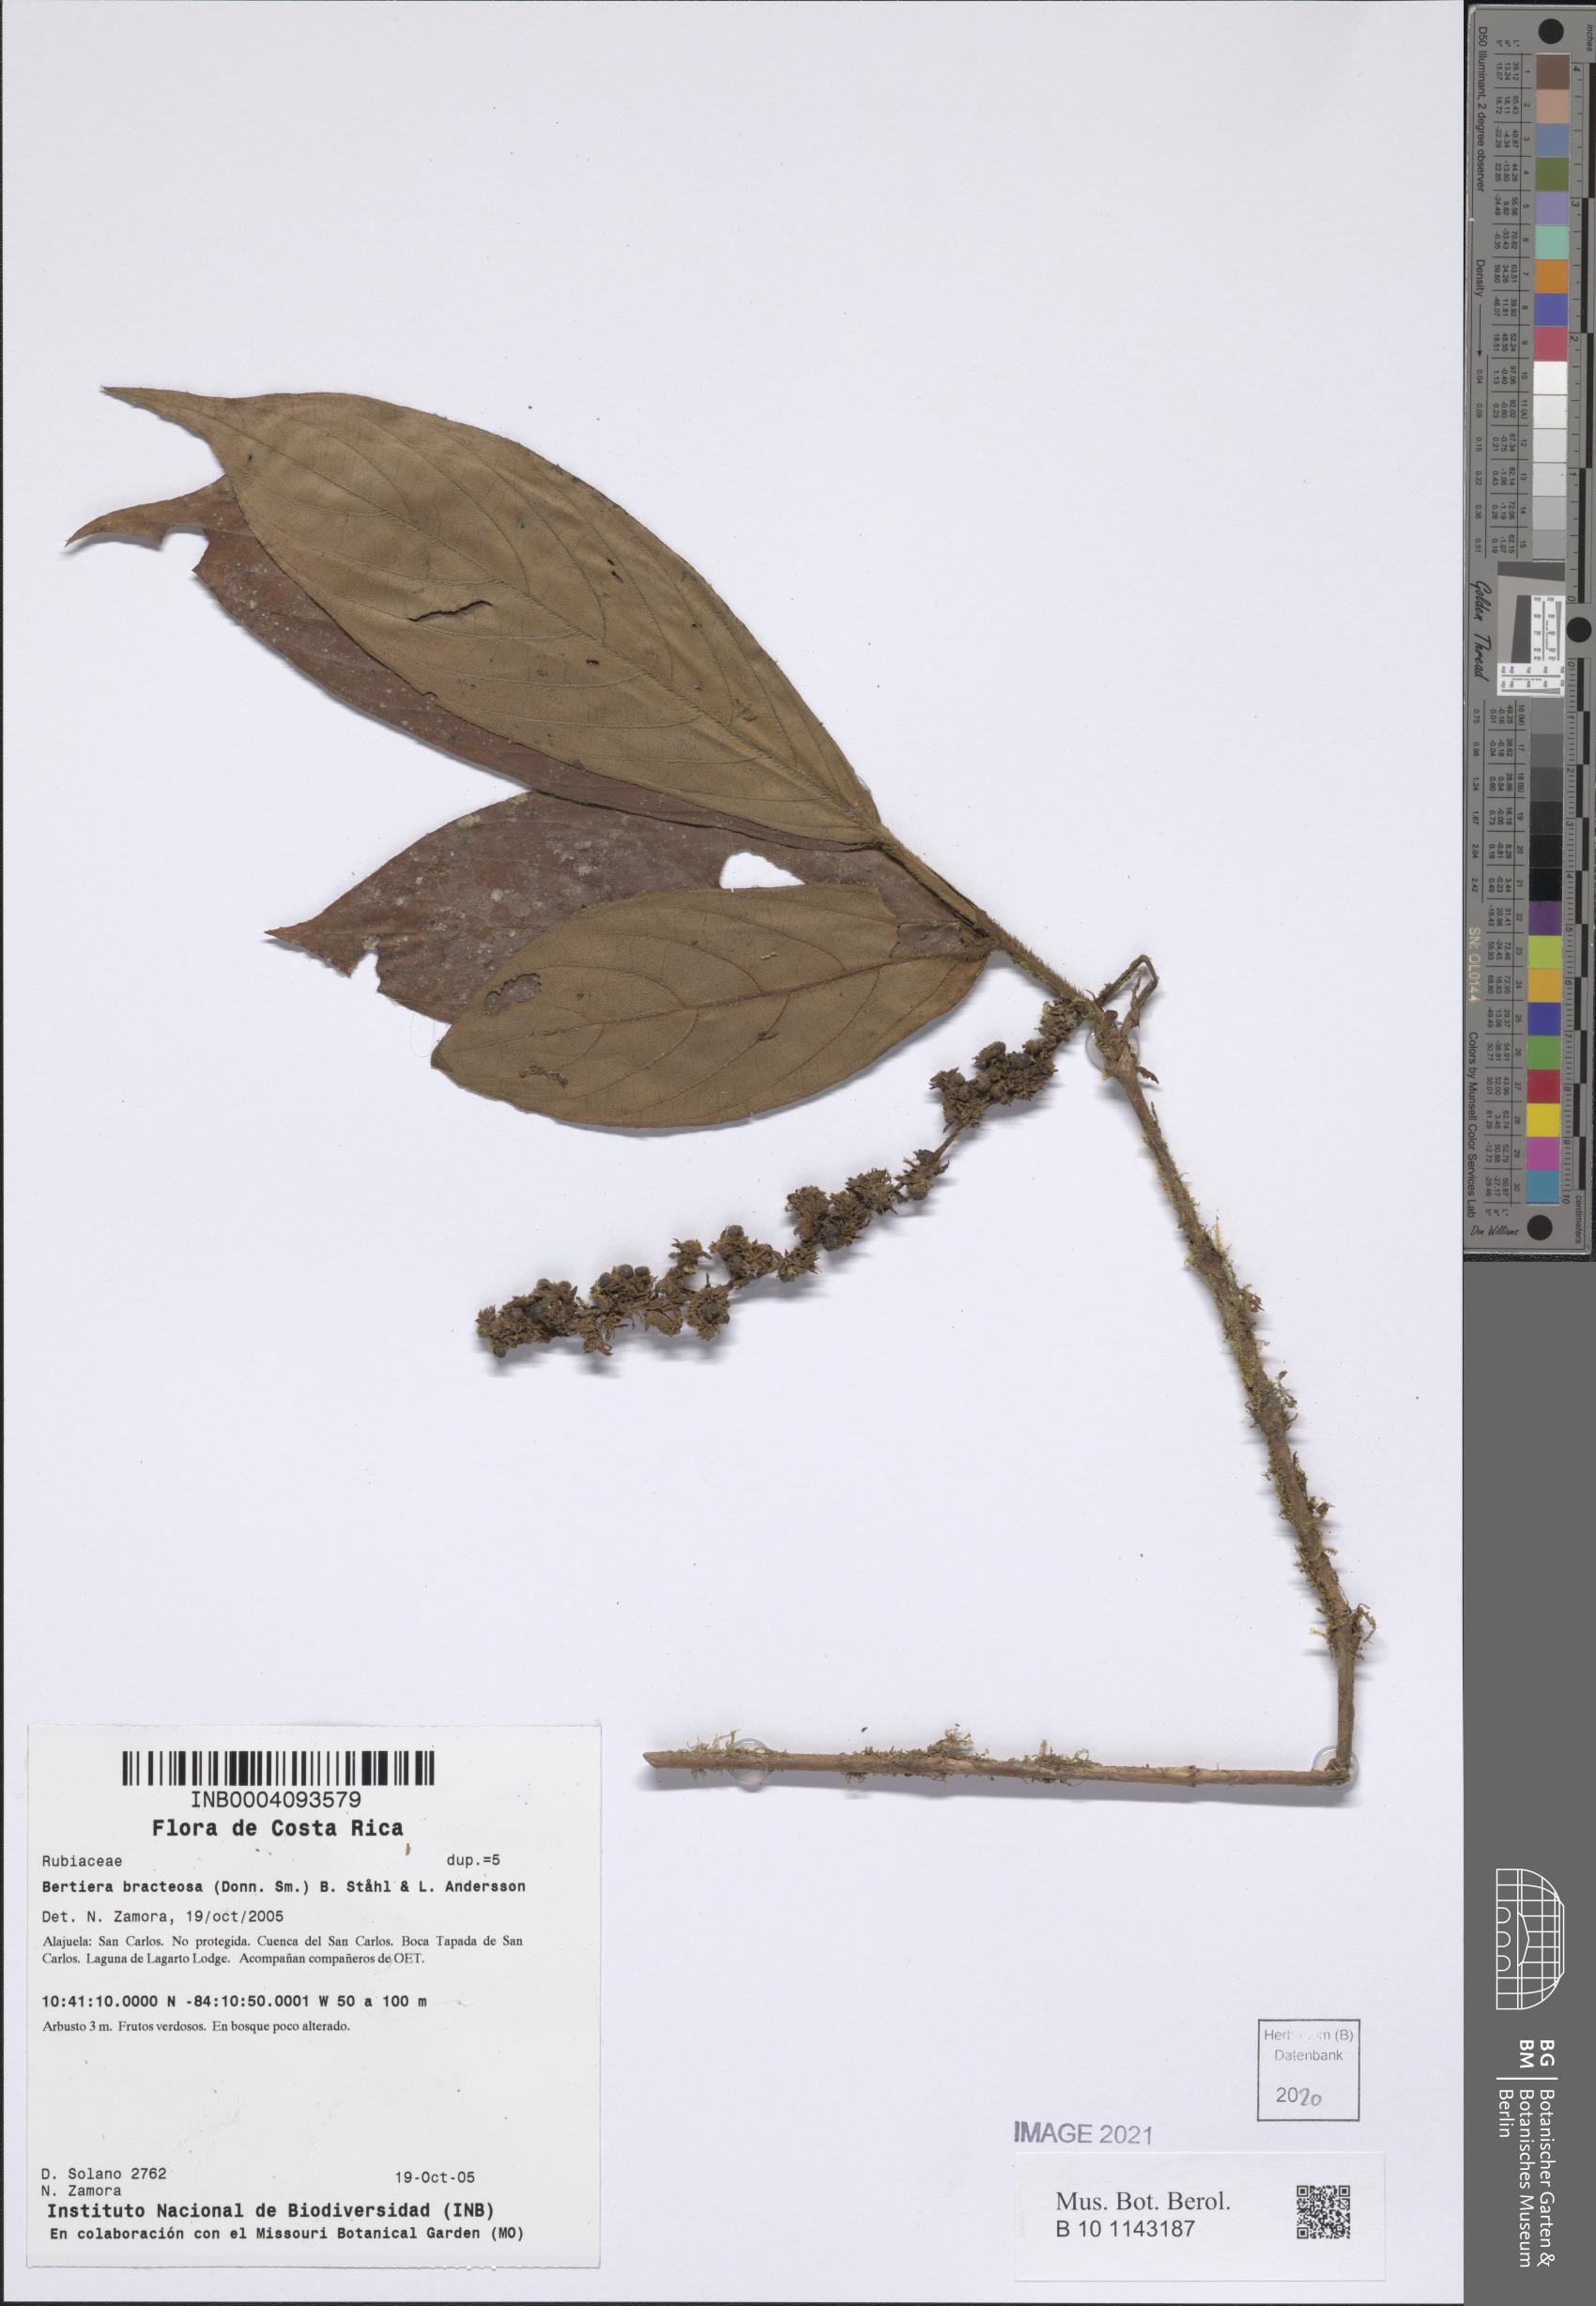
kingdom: Plantae
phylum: Tracheophyta
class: Magnoliopsida
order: Gentianales
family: Rubiaceae
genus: Bertiera
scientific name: Bertiera bracteosa
